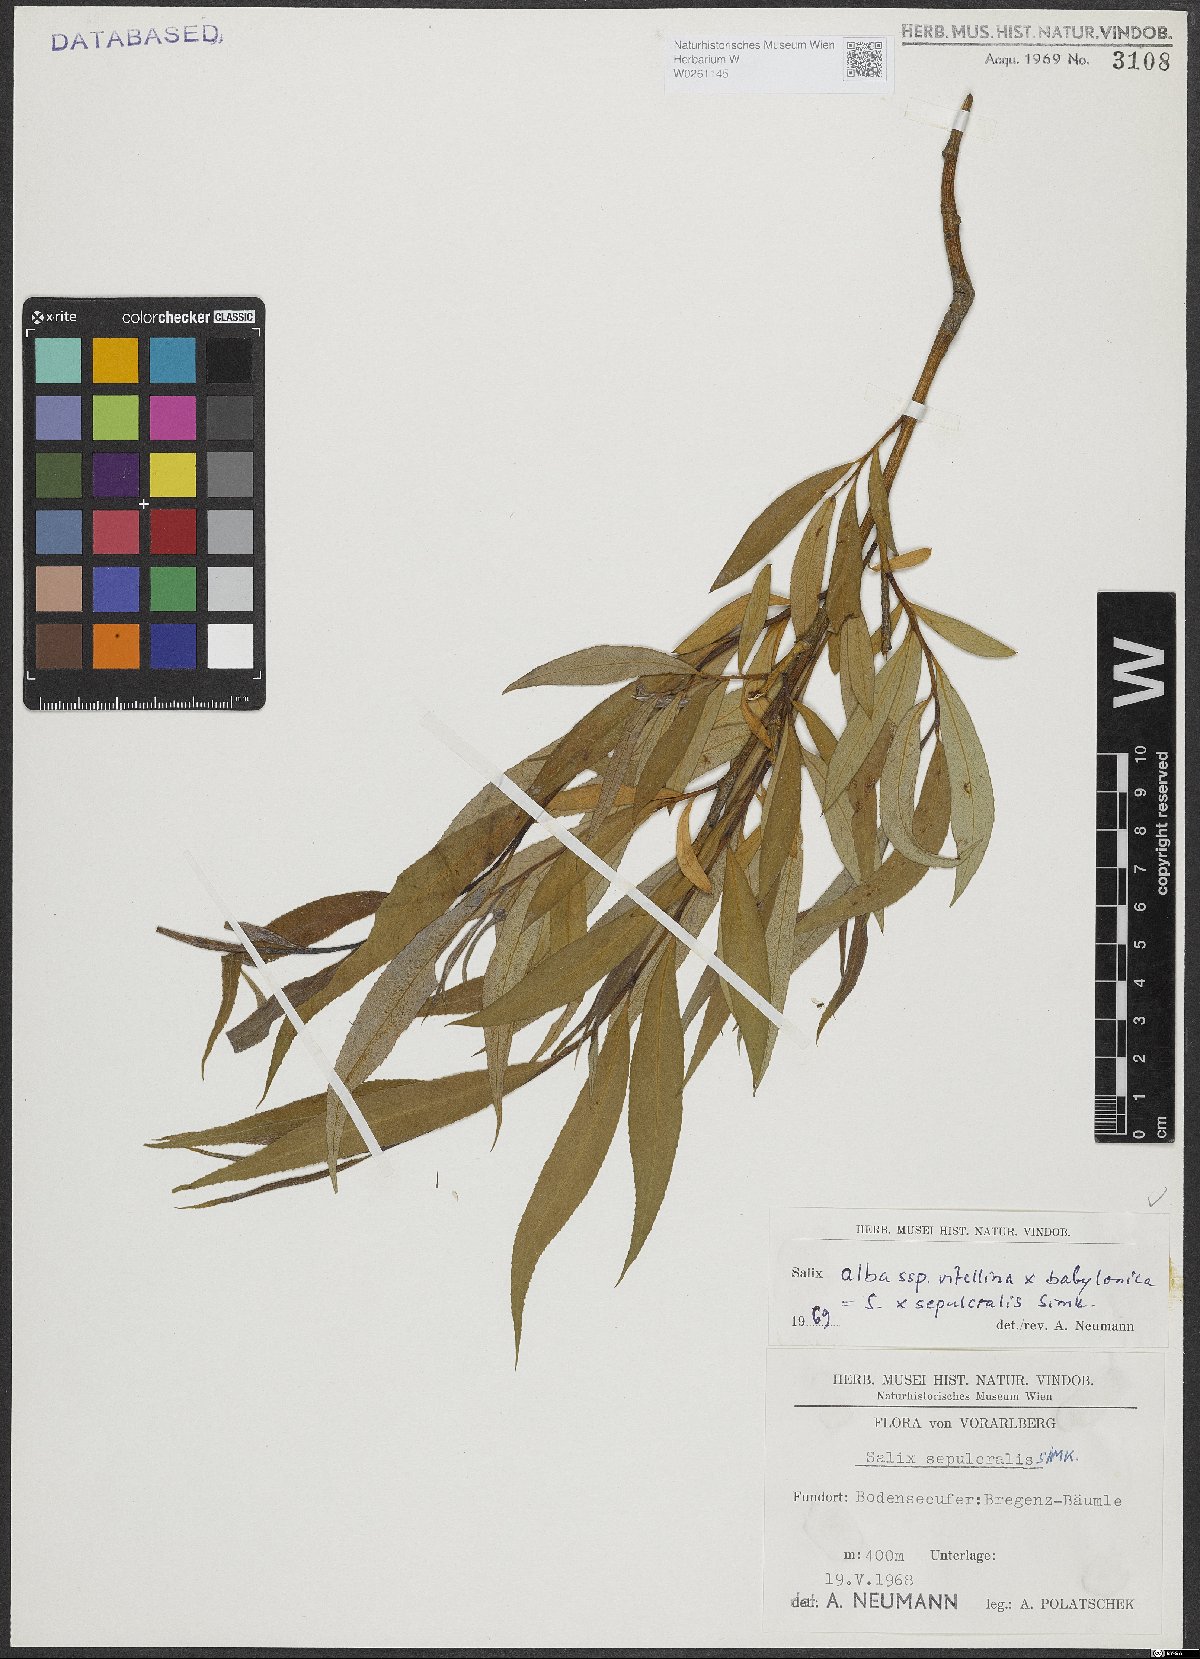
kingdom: Plantae
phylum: Tracheophyta
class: Magnoliopsida
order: Malpighiales
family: Salicaceae
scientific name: Salicaceae
